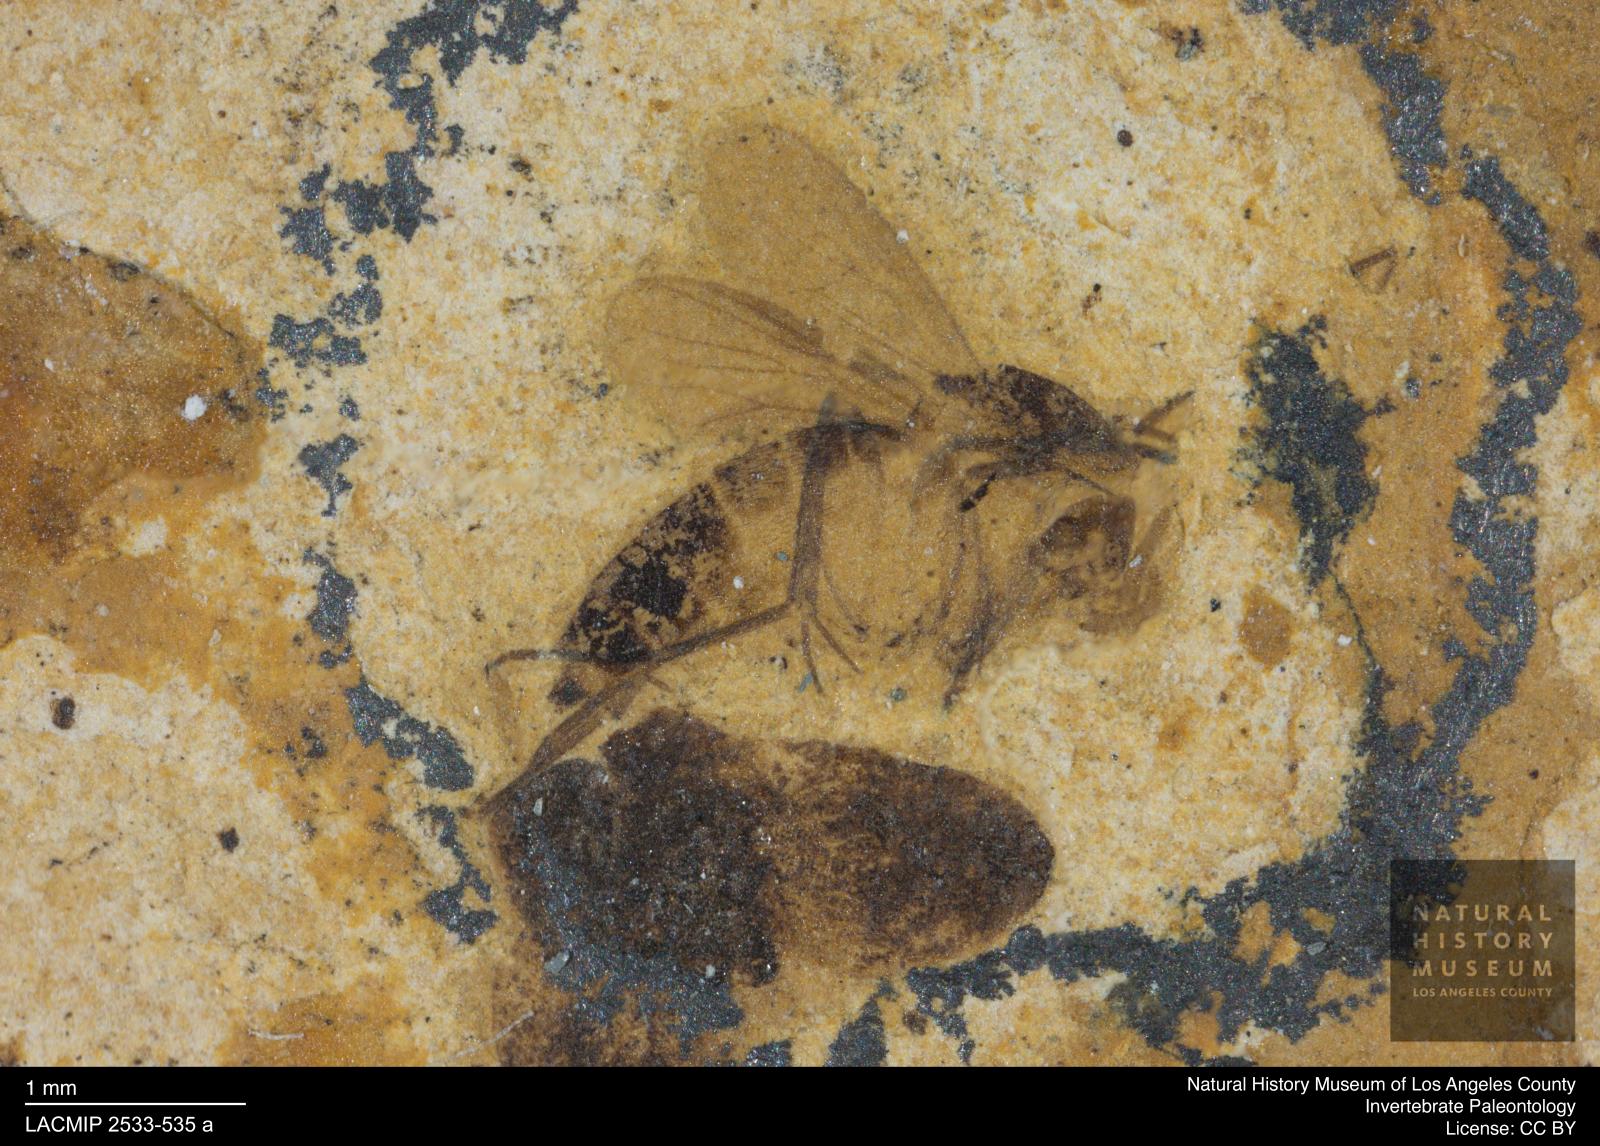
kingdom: Animalia
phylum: Arthropoda
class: Insecta
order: Diptera
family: Mycetophilidae
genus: Cordyla
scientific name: Cordyla rhenana
